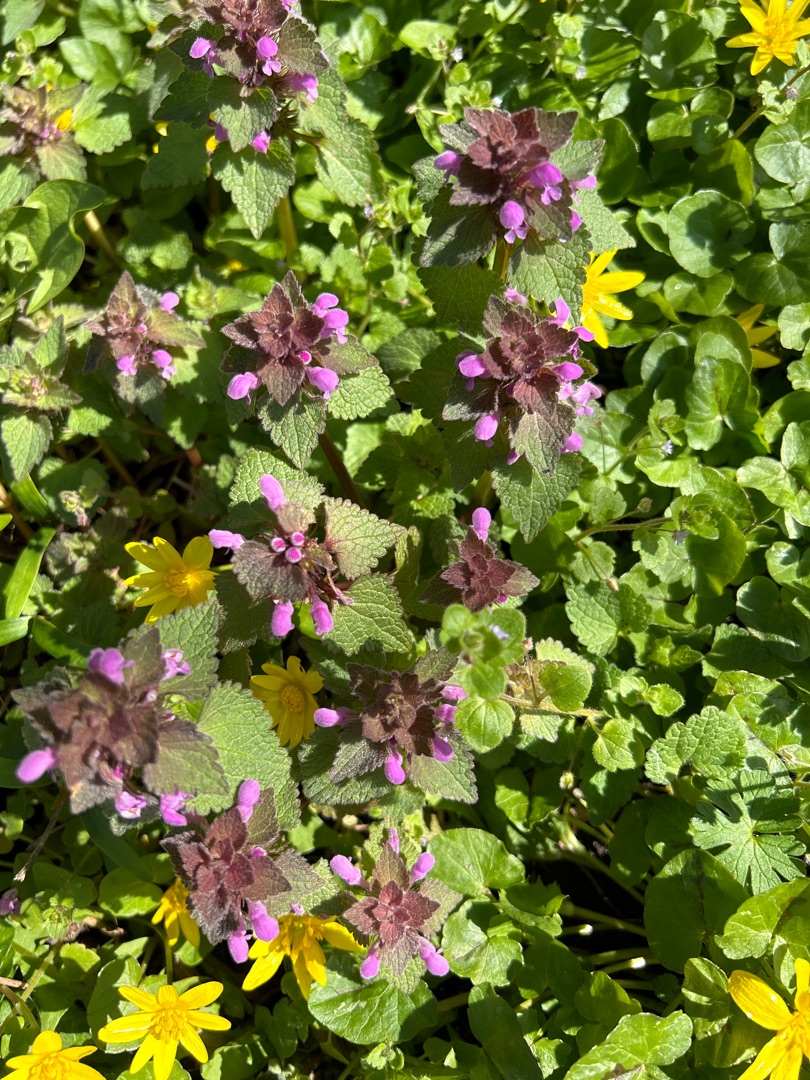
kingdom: Plantae
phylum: Tracheophyta
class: Magnoliopsida
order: Lamiales
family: Lamiaceae
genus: Lamium
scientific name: Lamium purpureum
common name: Rød tvetand
